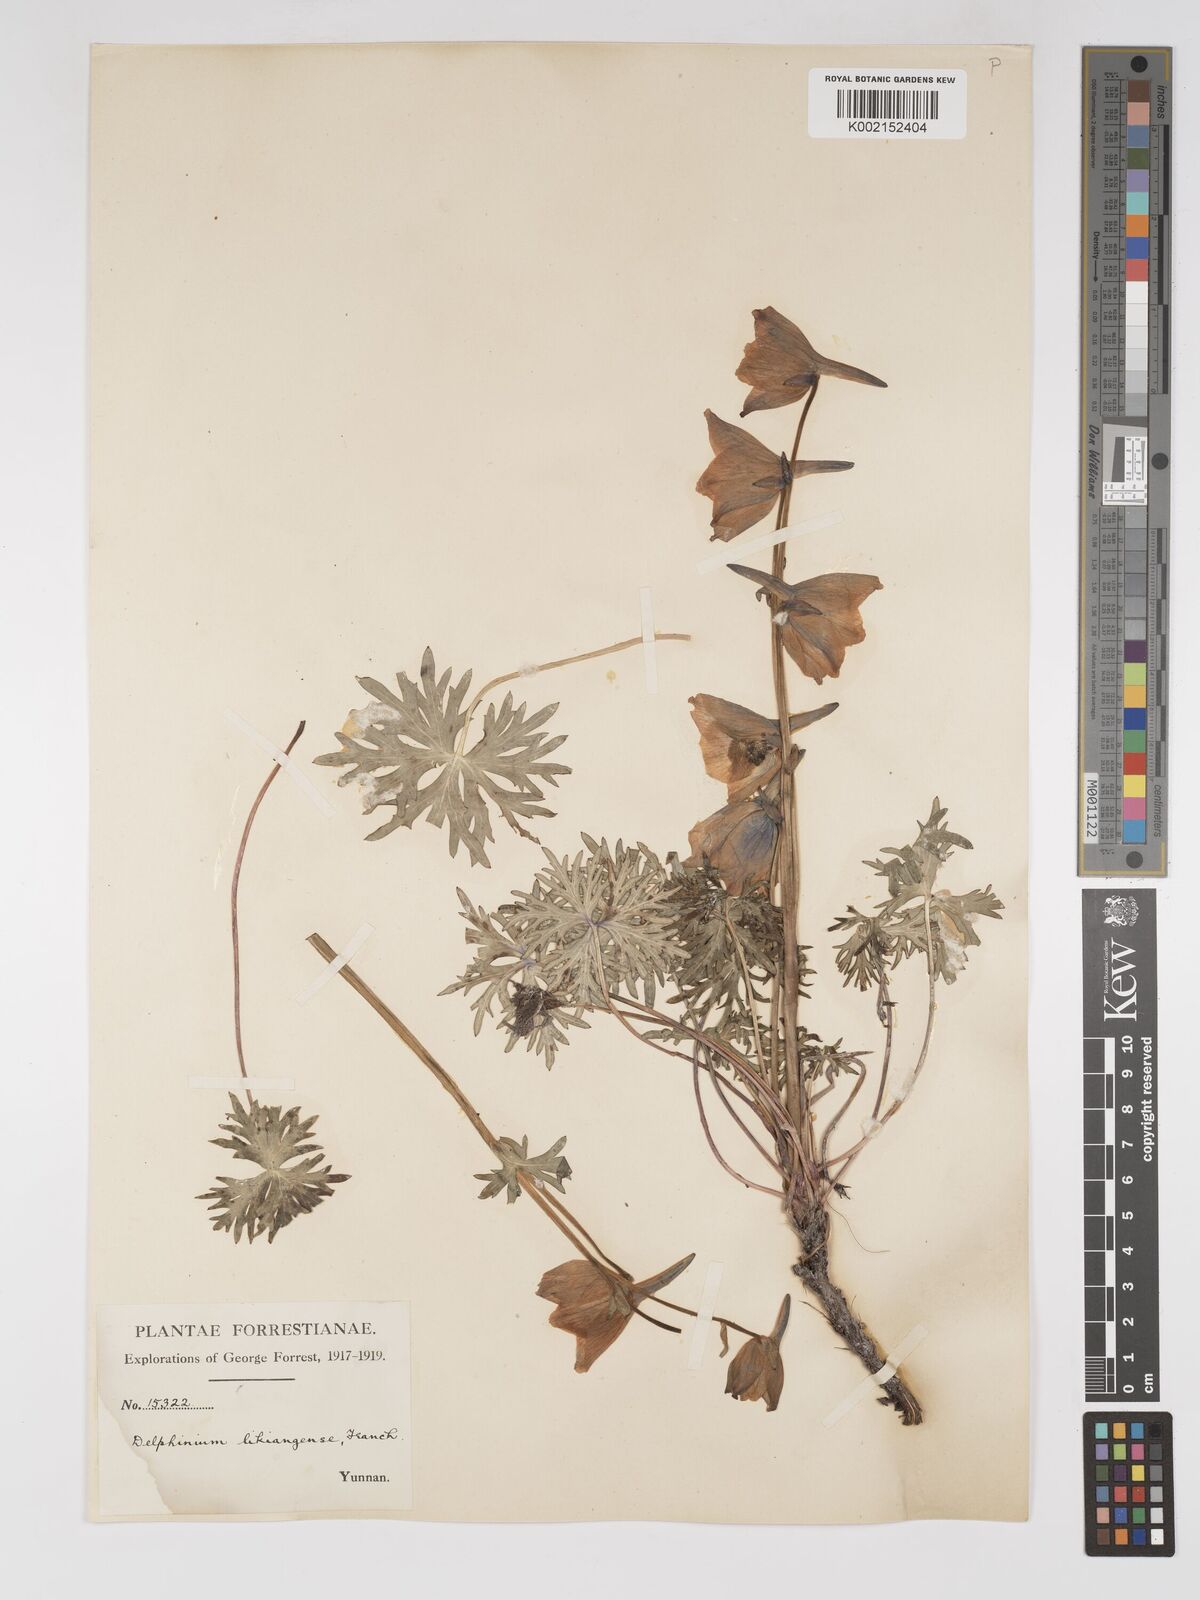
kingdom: Plantae
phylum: Tracheophyta
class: Magnoliopsida
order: Ranunculales
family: Ranunculaceae
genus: Delphinium
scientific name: Delphinium likiangense
